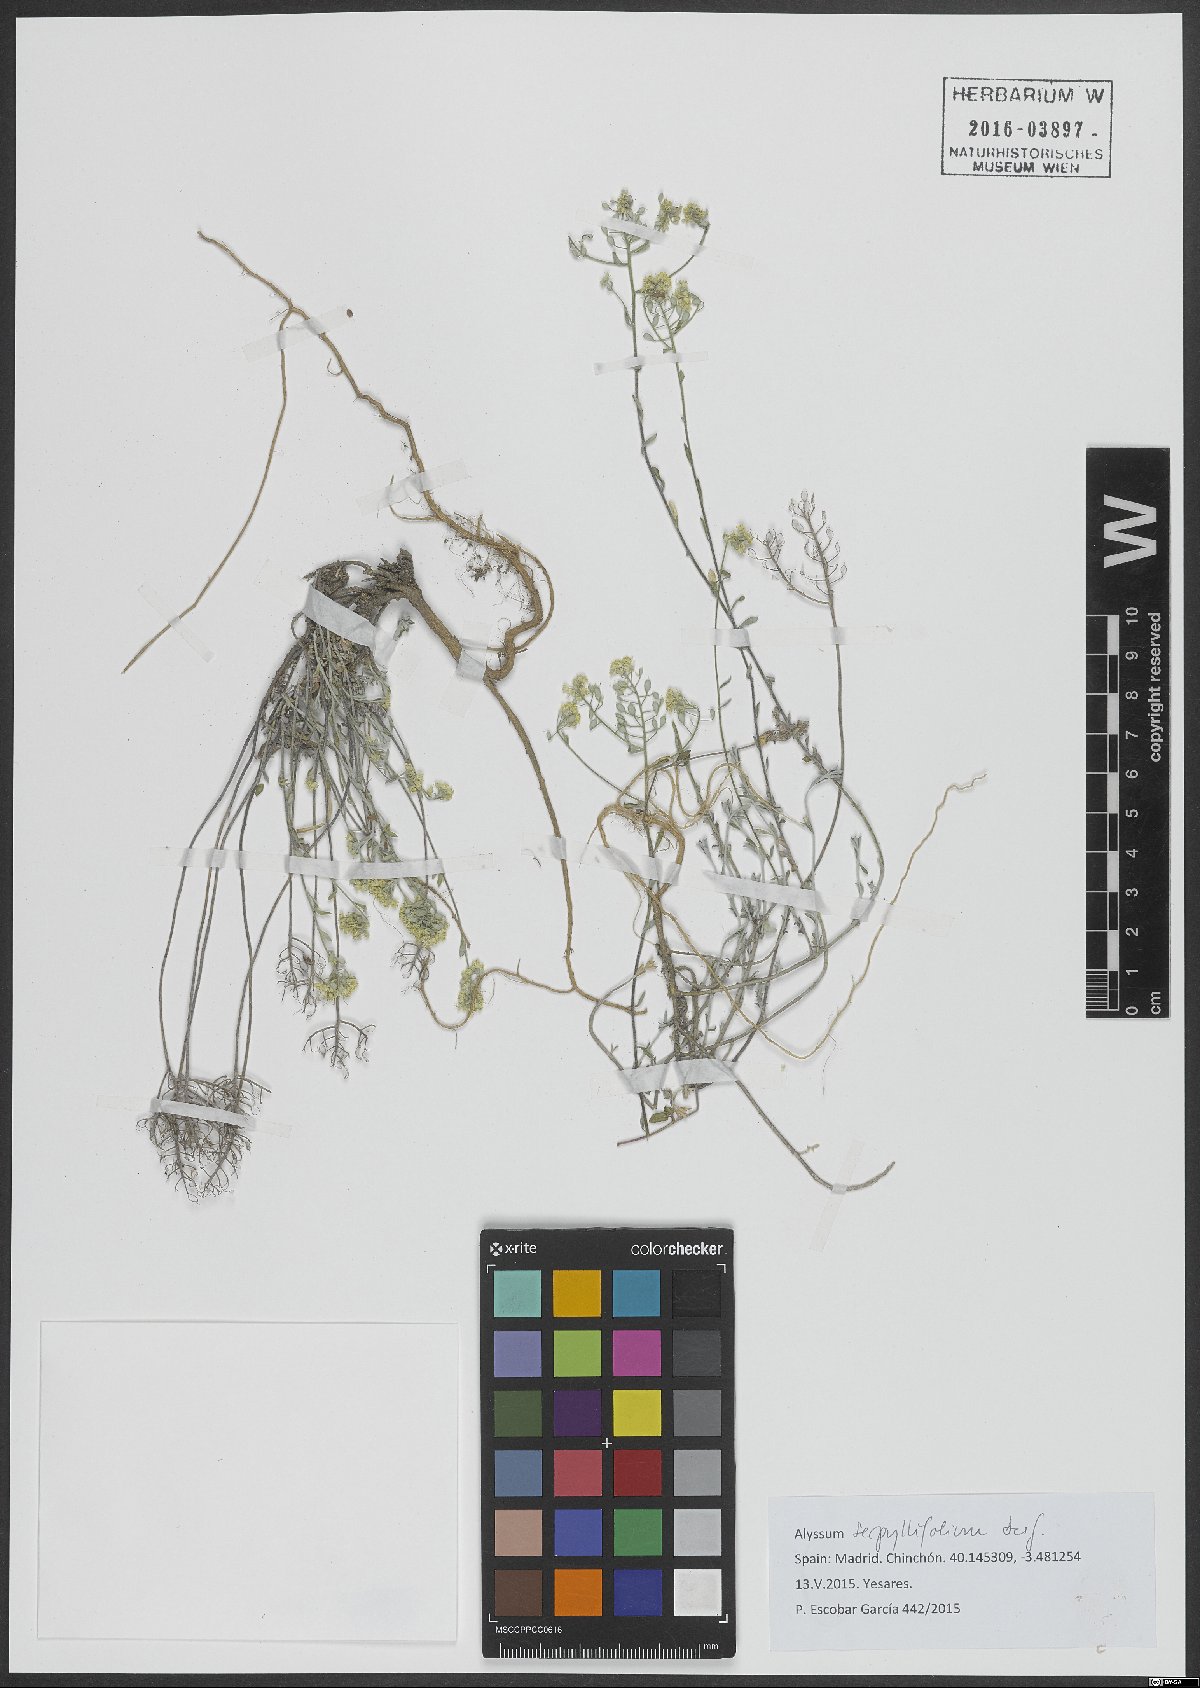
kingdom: Plantae
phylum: Tracheophyta
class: Magnoliopsida
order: Brassicales
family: Brassicaceae
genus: Odontarrhena
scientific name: Odontarrhena serpyllifolia
